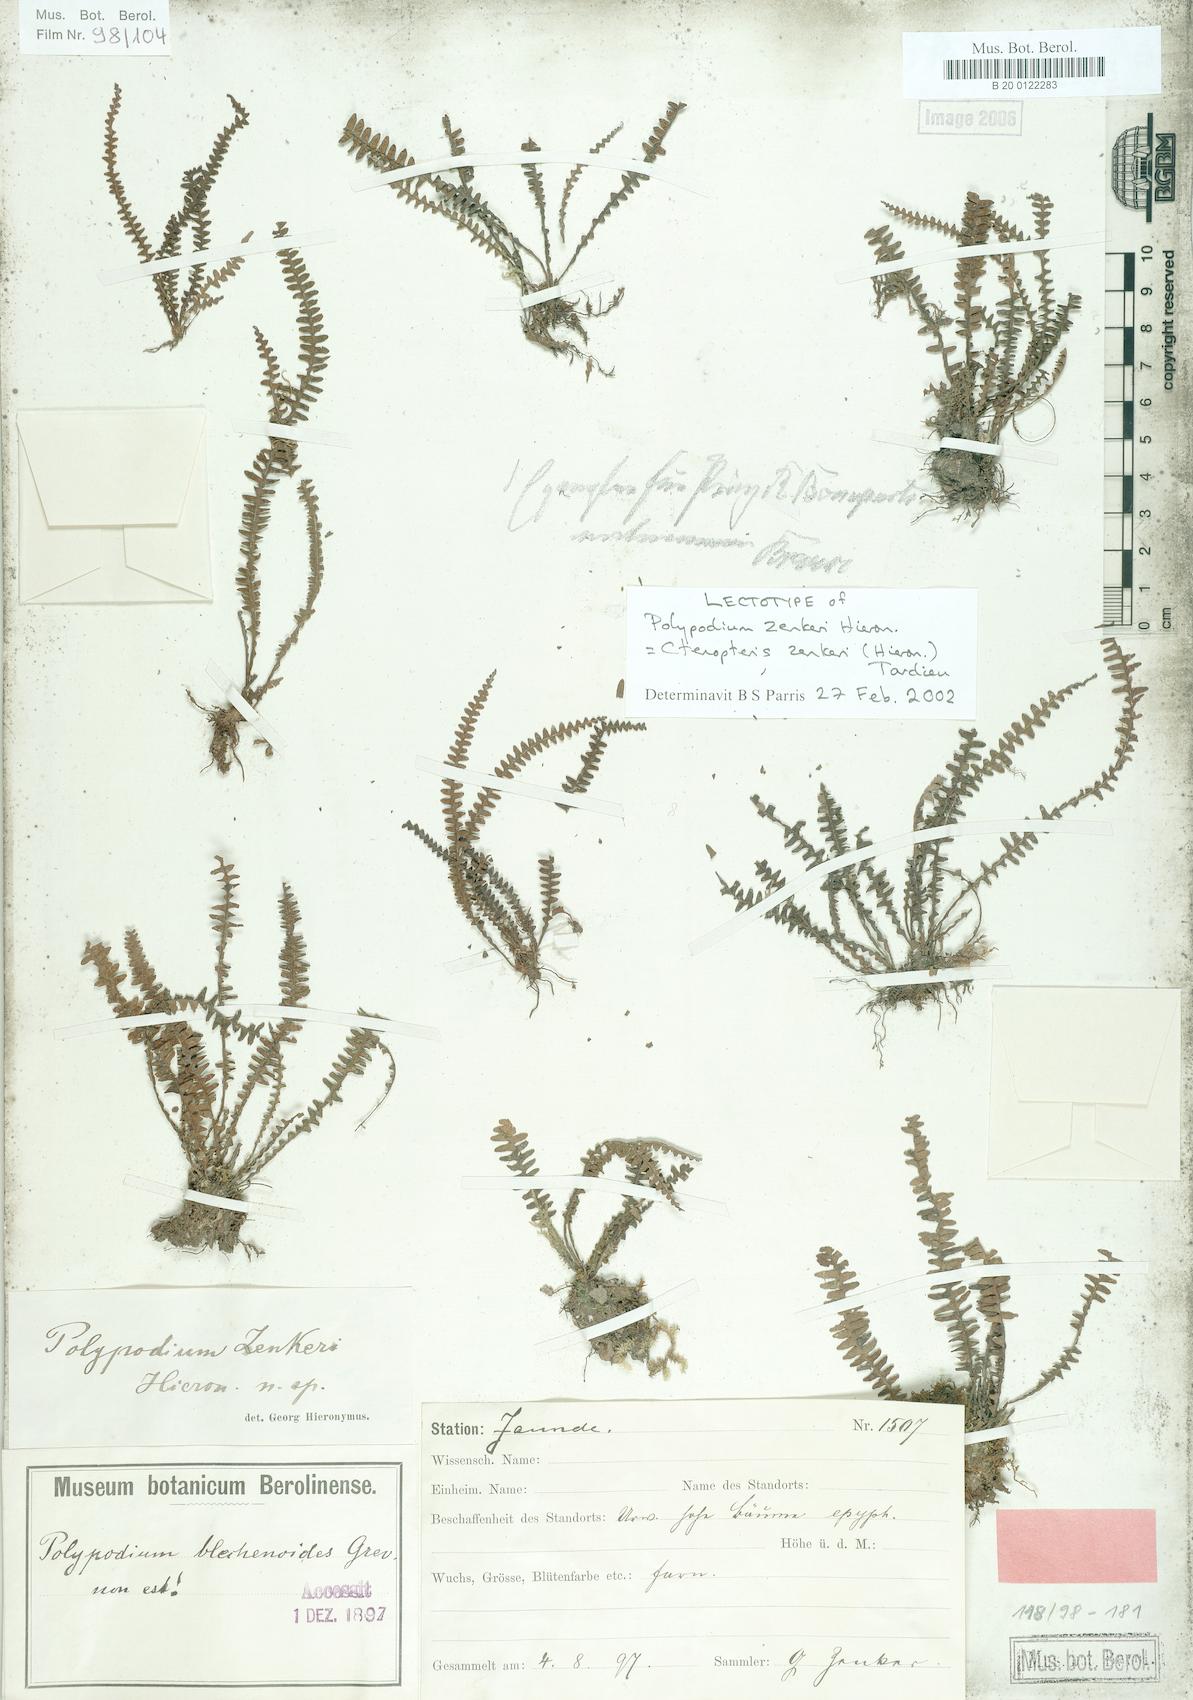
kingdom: Plantae
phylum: Tracheophyta
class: Polypodiopsida
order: Polypodiales
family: Polypodiaceae
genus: Ctenopterella
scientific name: Ctenopterella zenkeri
